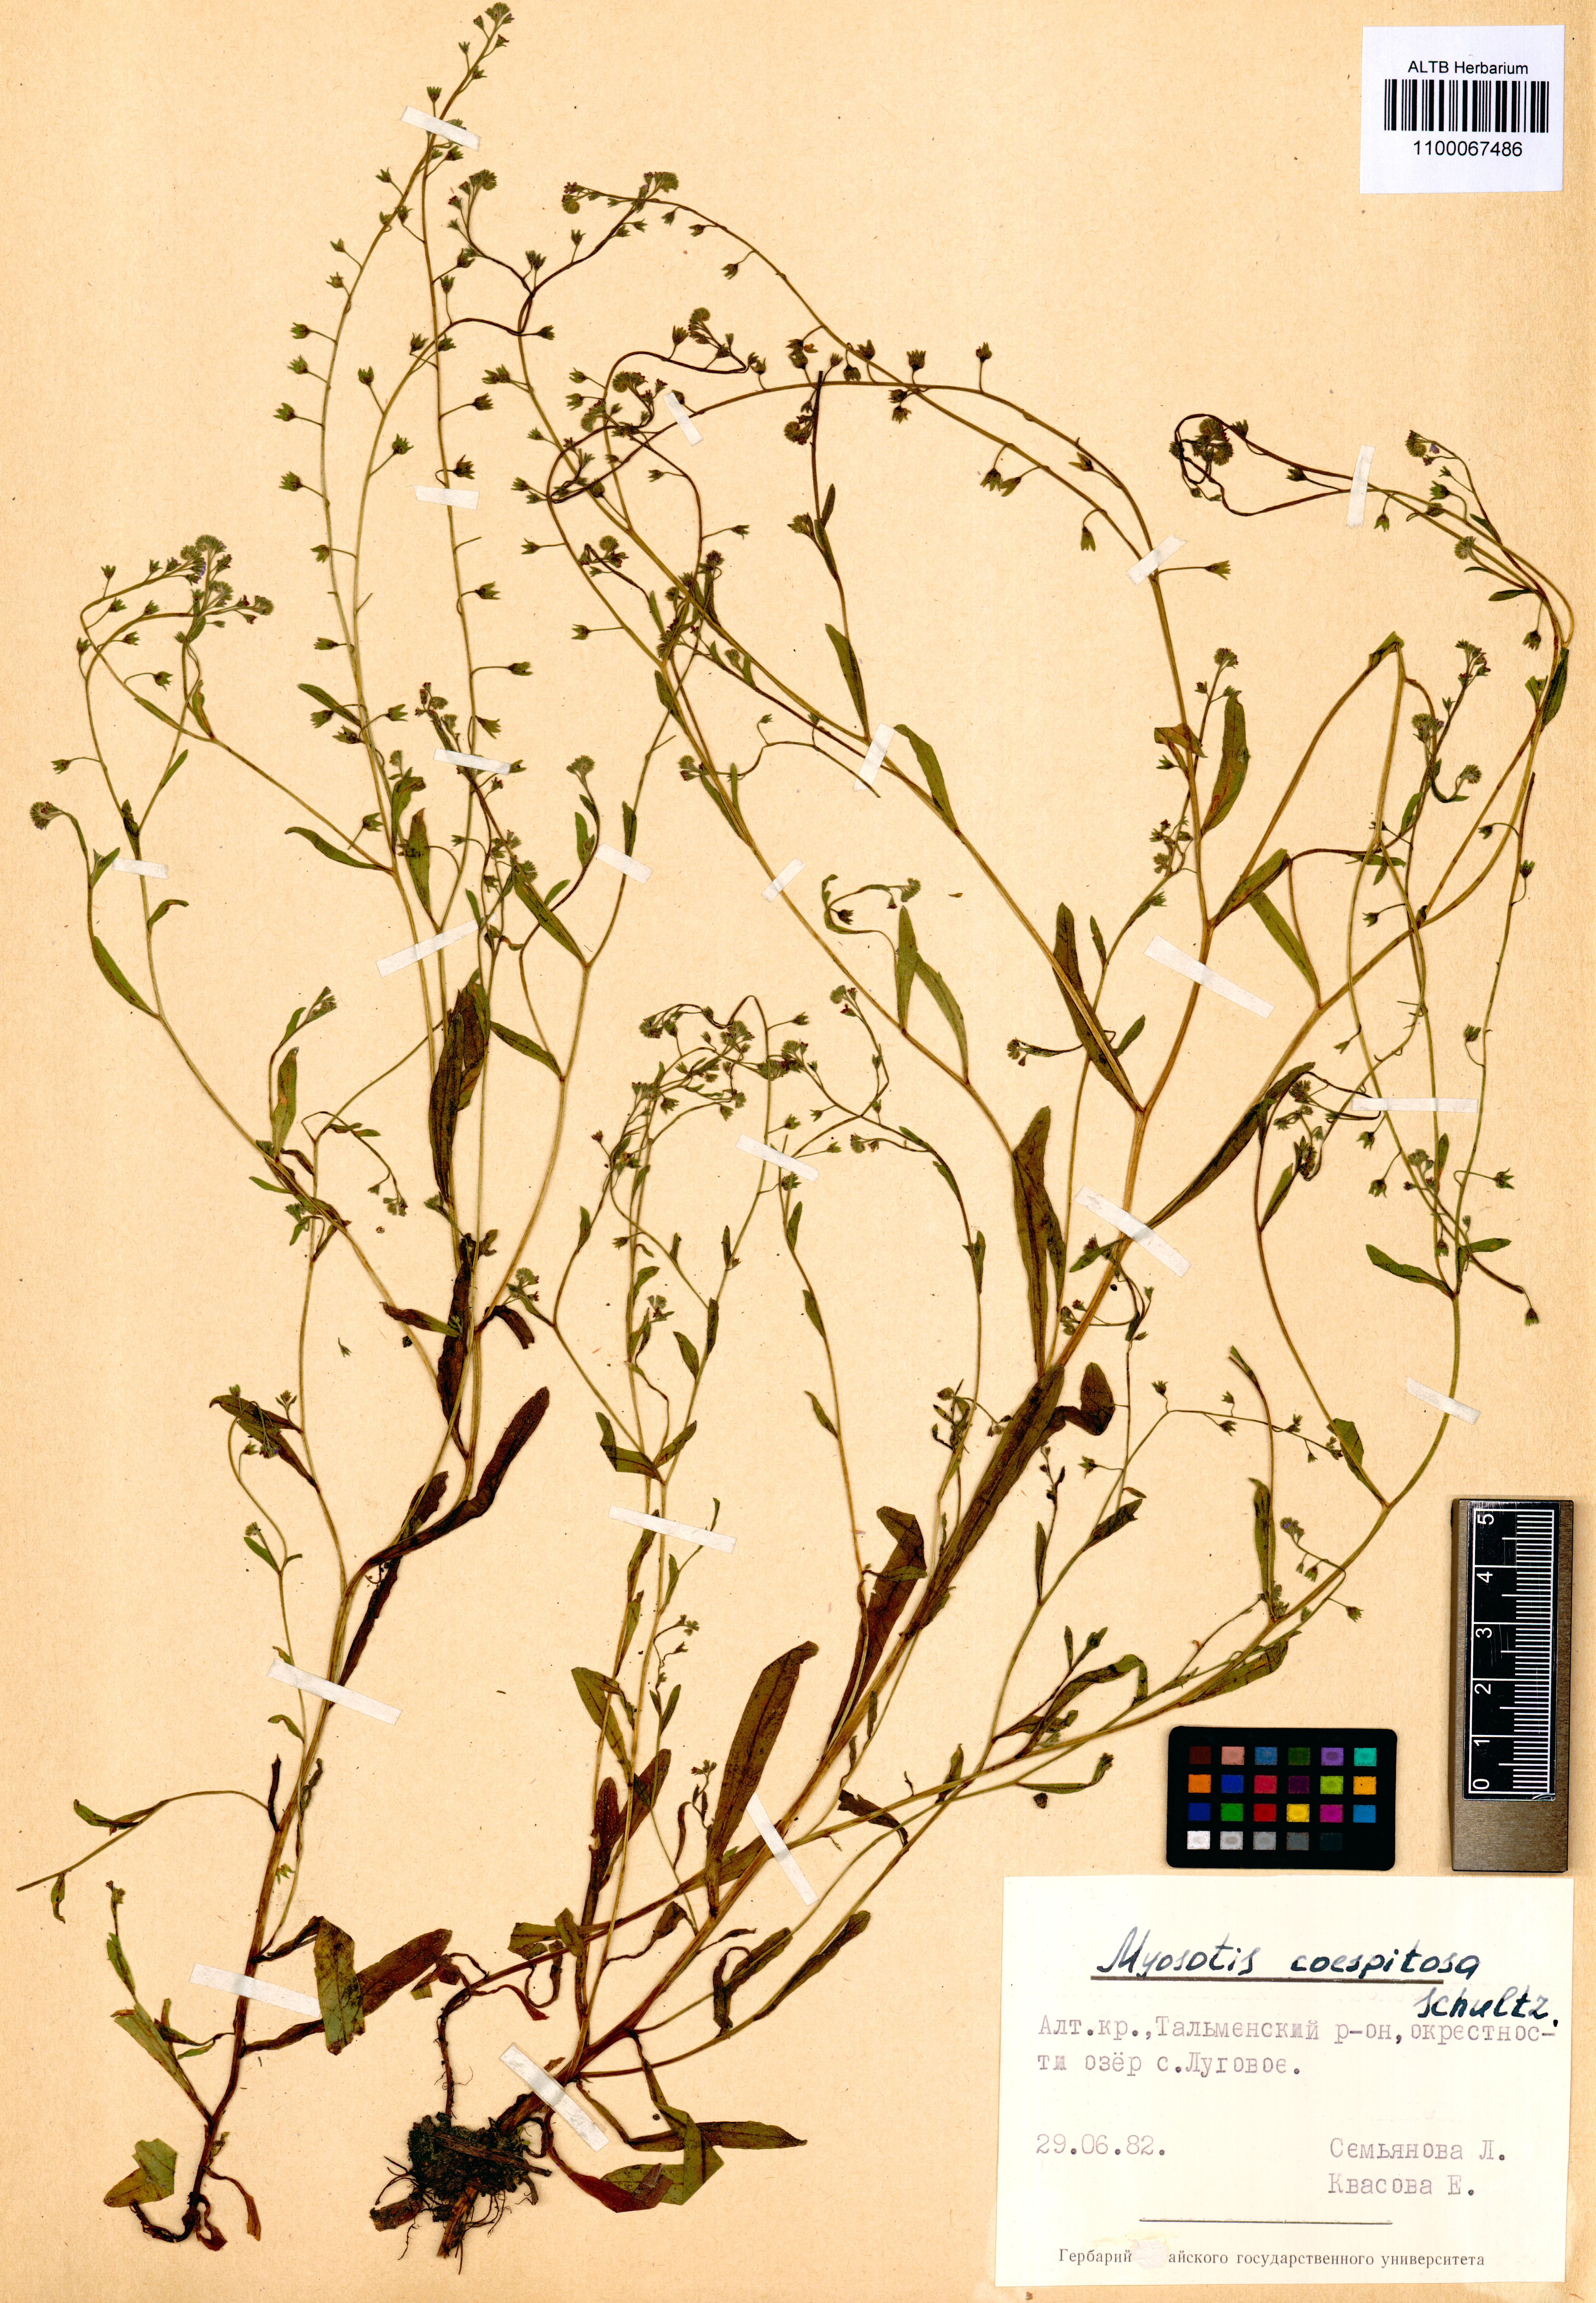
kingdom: Plantae
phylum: Tracheophyta
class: Magnoliopsida
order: Boraginales
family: Boraginaceae
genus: Myosotis
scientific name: Myosotis laxa
